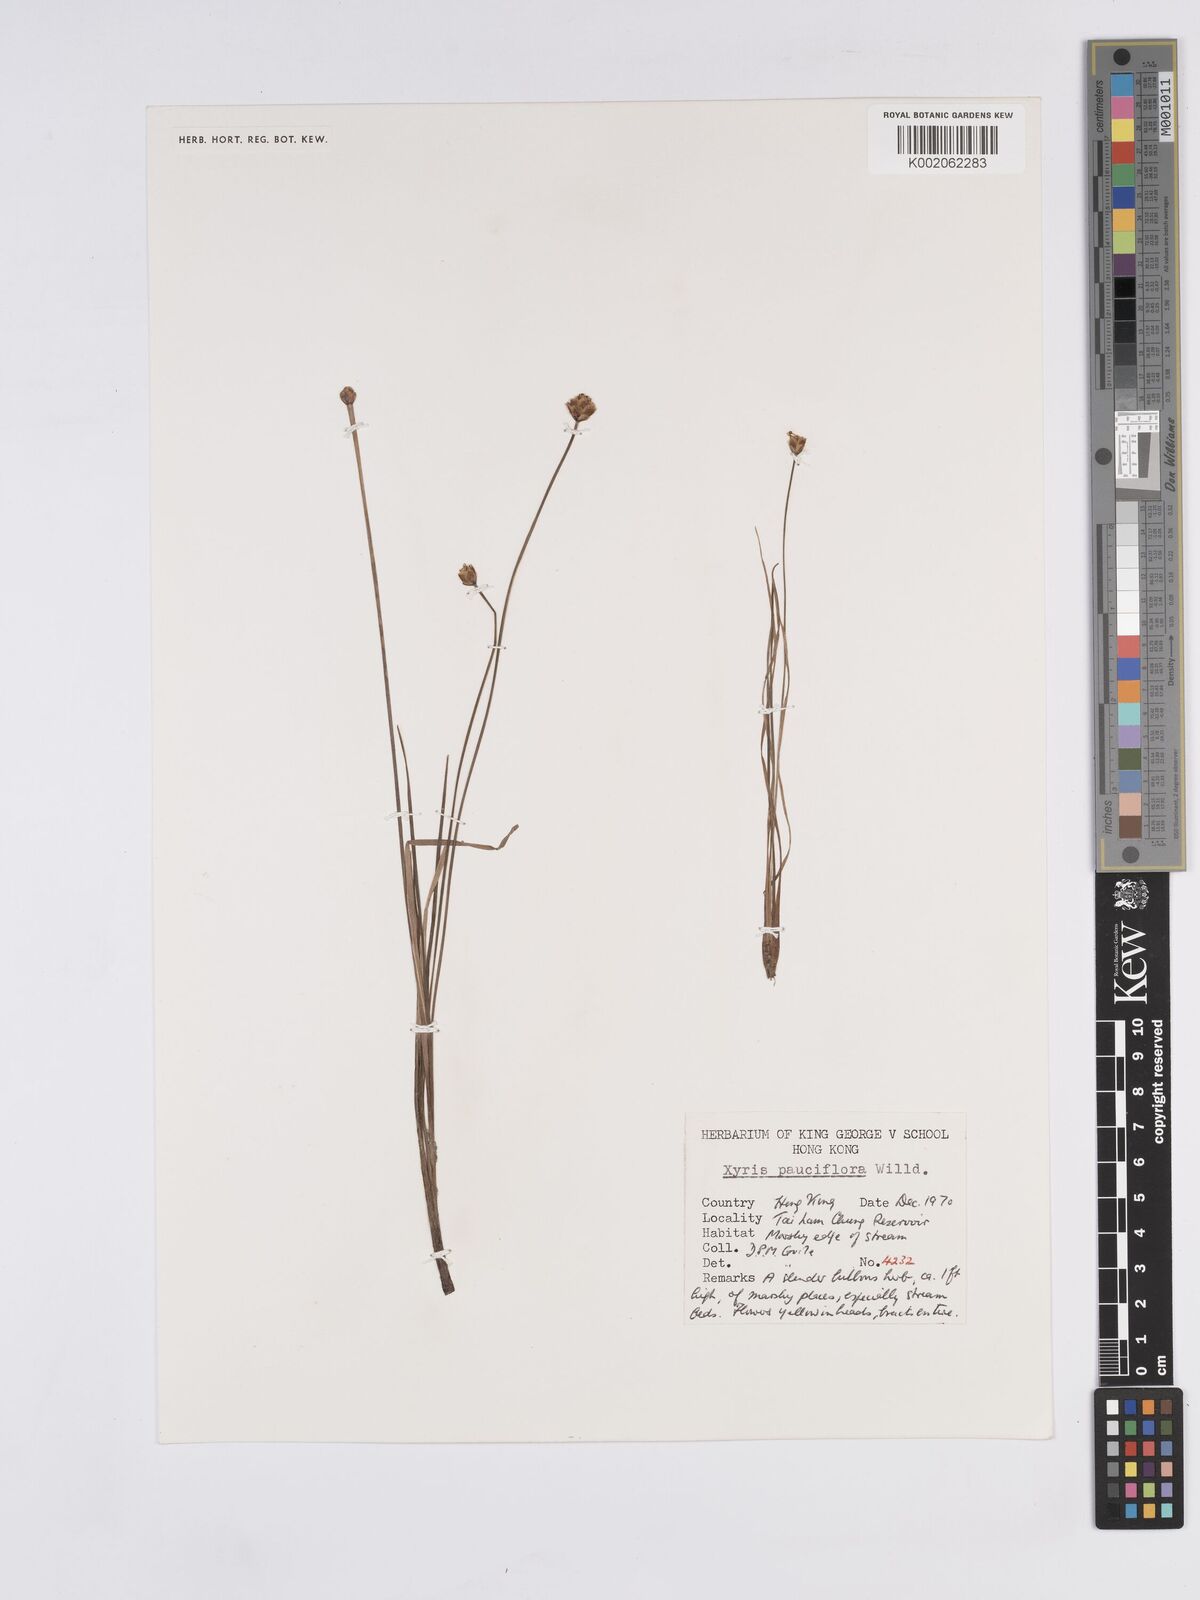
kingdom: Plantae
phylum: Tracheophyta
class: Liliopsida
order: Poales
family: Xyridaceae
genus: Xyris
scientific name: Xyris pauciflora
